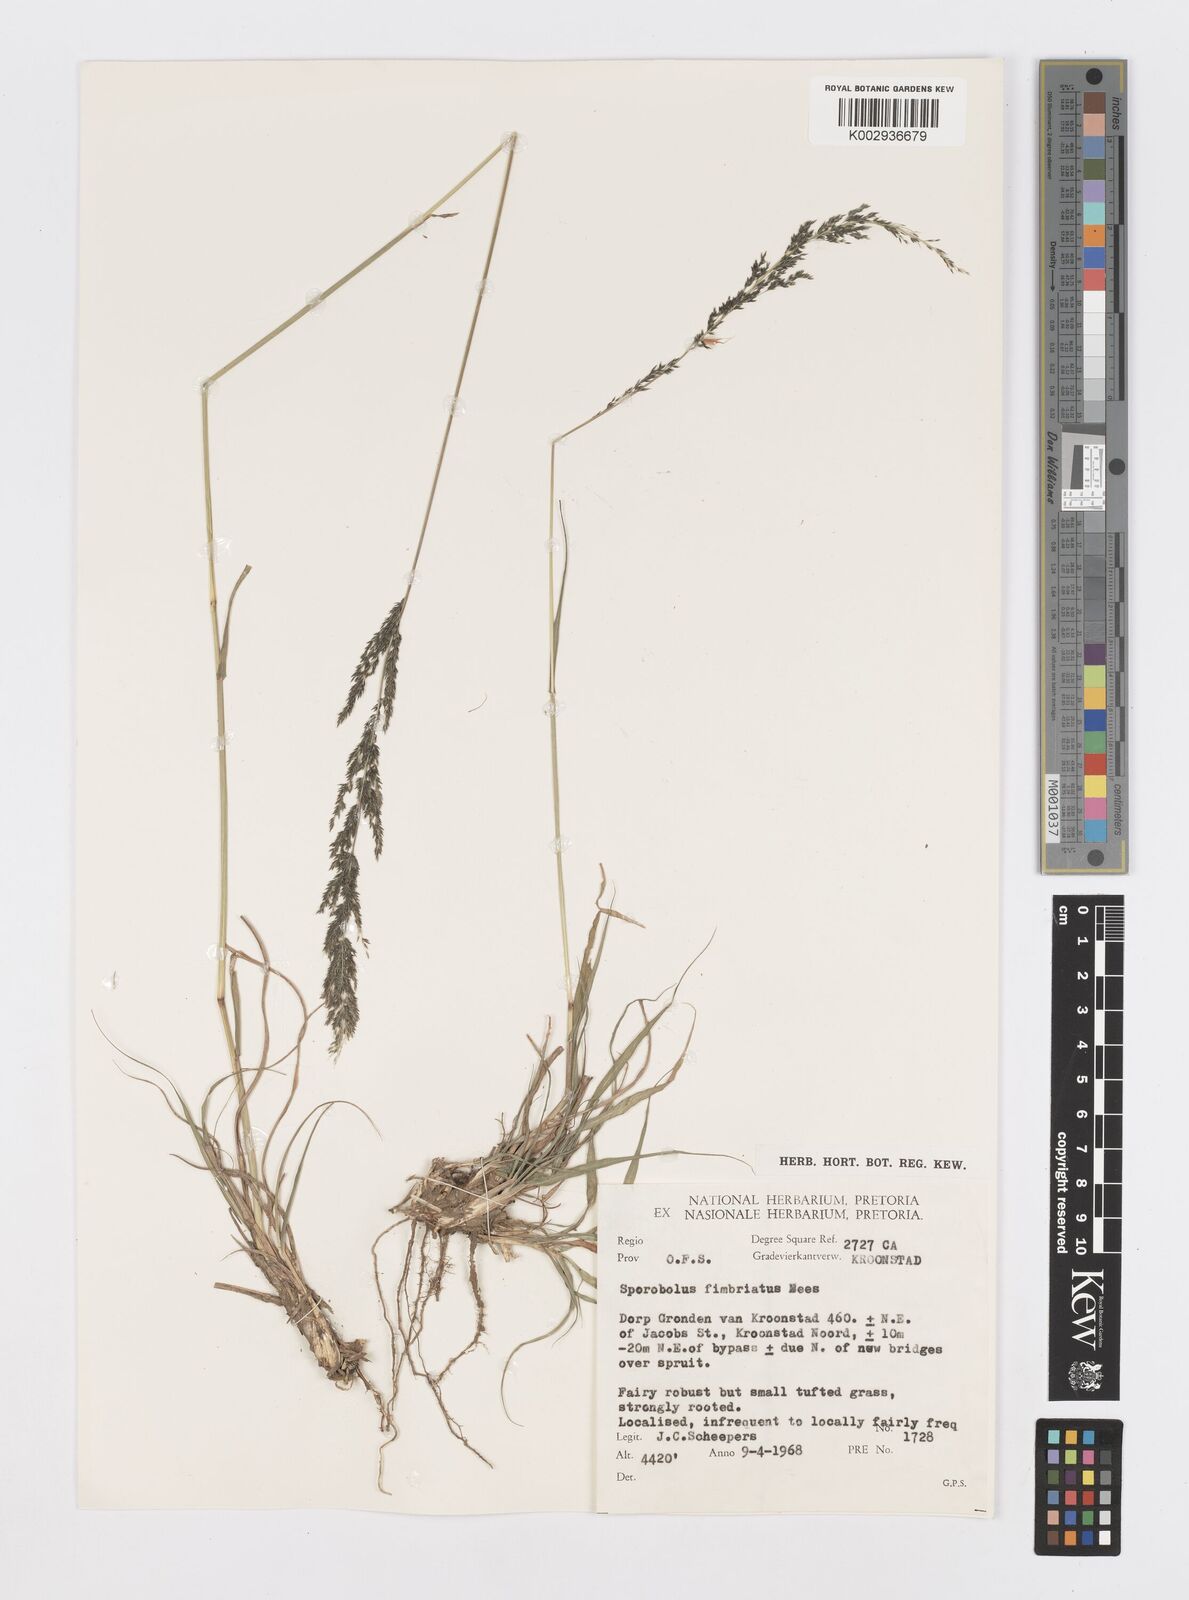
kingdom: Plantae
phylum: Tracheophyta
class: Liliopsida
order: Poales
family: Poaceae
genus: Sporobolus
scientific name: Sporobolus fimbriatus
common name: Fringed dropseed
